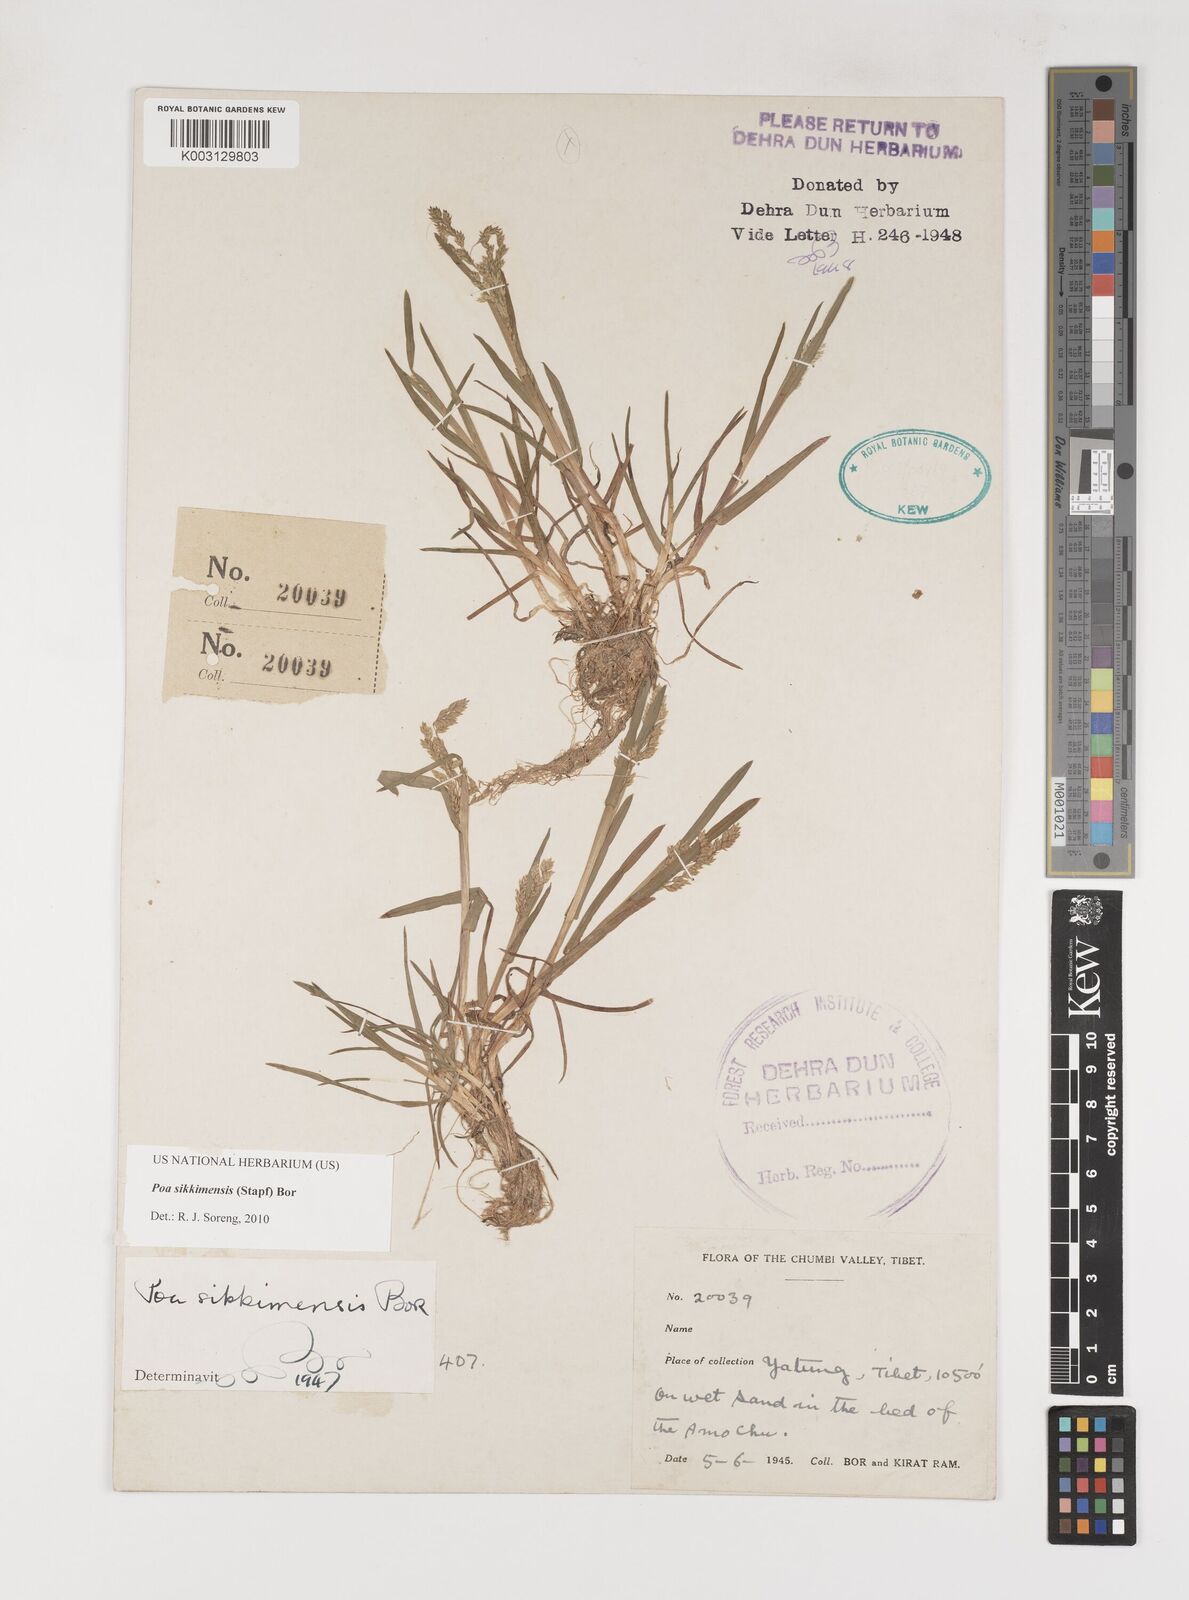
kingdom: Plantae
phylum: Tracheophyta
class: Liliopsida
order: Poales
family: Poaceae
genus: Poa
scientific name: Poa sikkimensis
